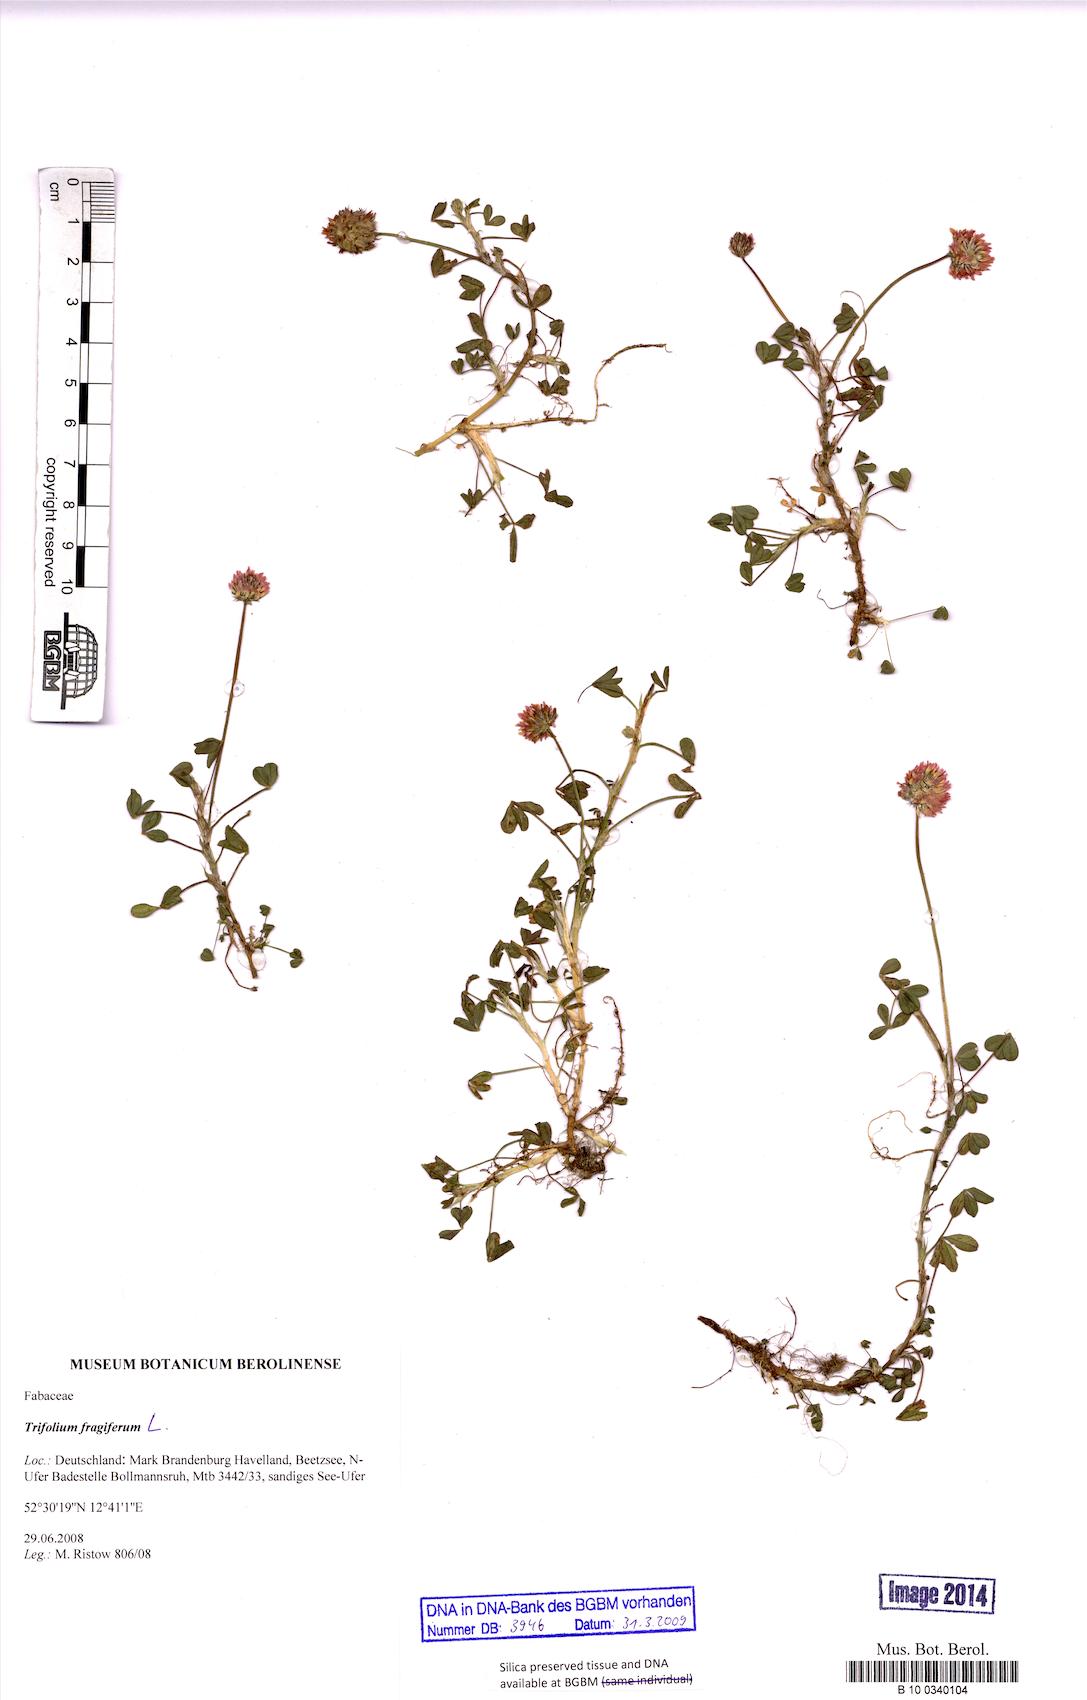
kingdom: Plantae
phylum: Tracheophyta
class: Magnoliopsida
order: Fabales
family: Fabaceae
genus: Trifolium
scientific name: Trifolium fragiferum
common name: Strawberry clover
